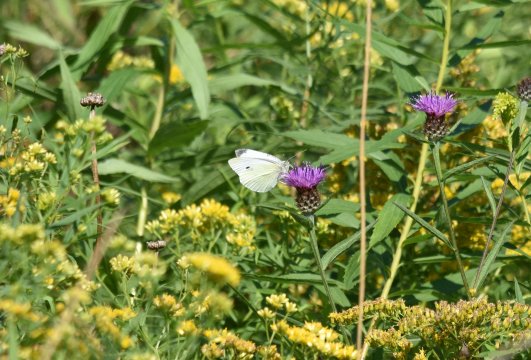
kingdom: Animalia
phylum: Arthropoda
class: Insecta
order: Lepidoptera
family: Pieridae
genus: Pieris
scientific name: Pieris rapae
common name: Cabbage White
